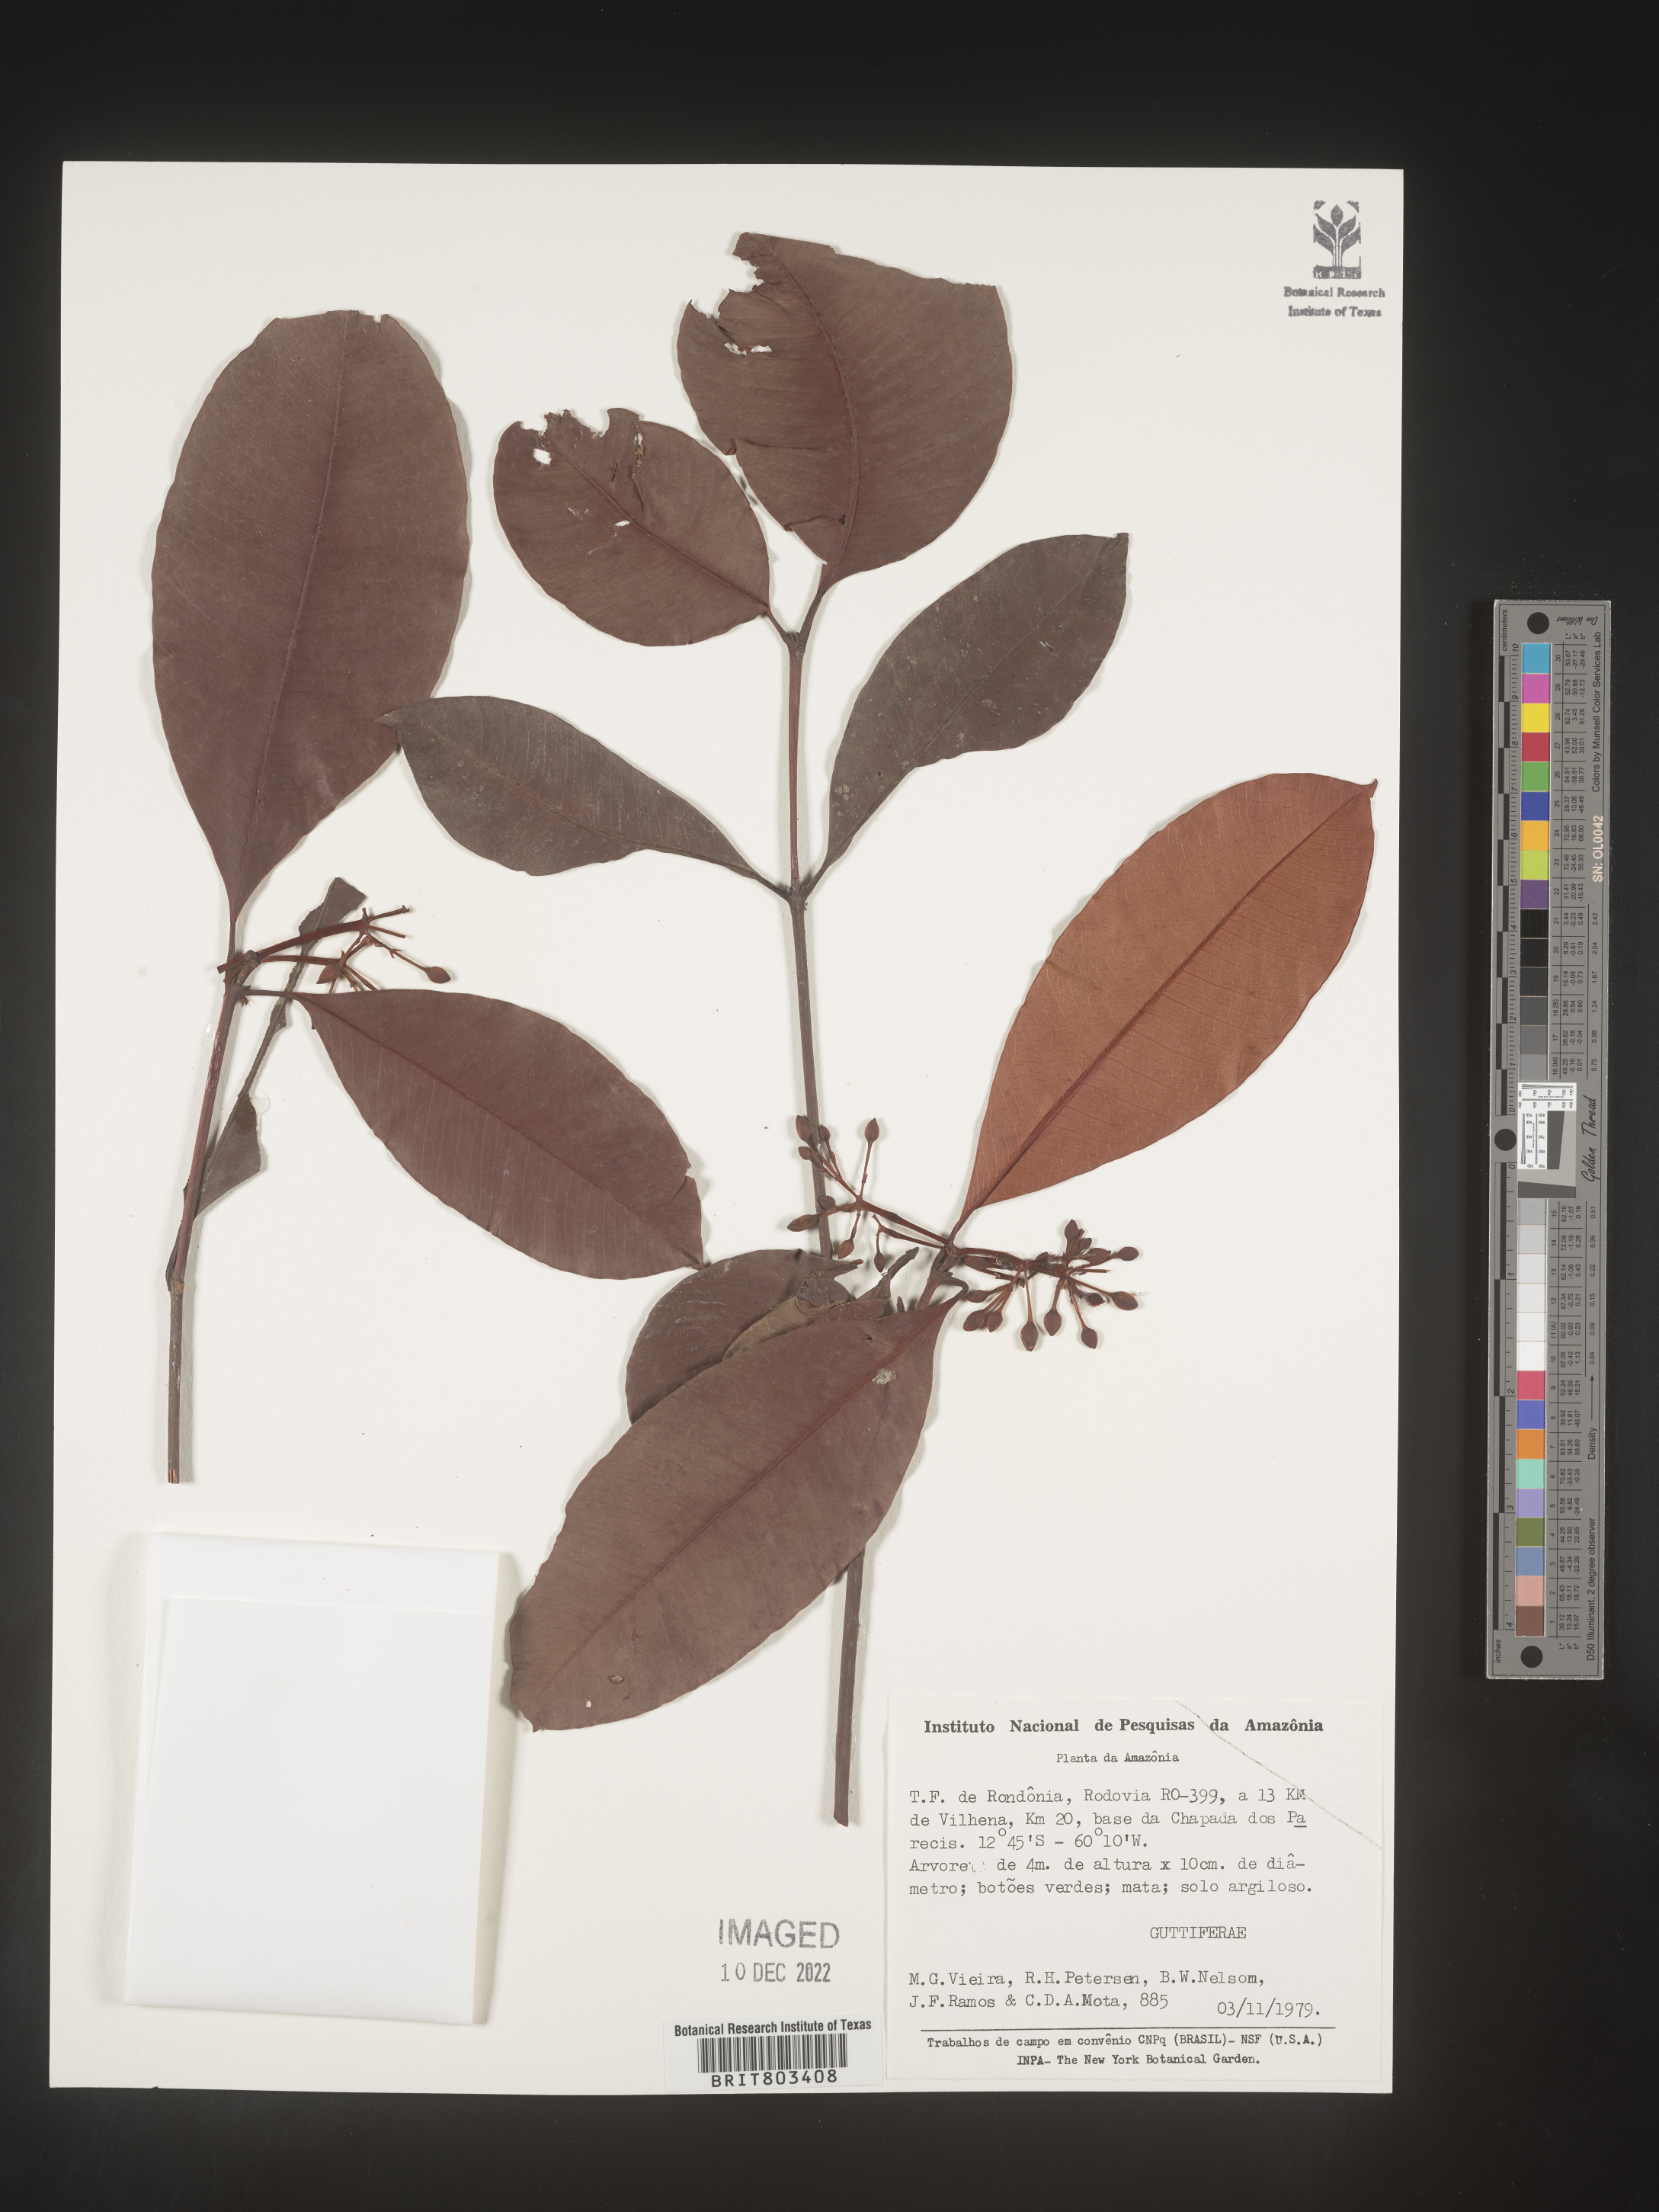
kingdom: Plantae
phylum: Tracheophyta
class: Magnoliopsida
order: Malpighiales
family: Clusiaceae
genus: Tovomita
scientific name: Tovomita
